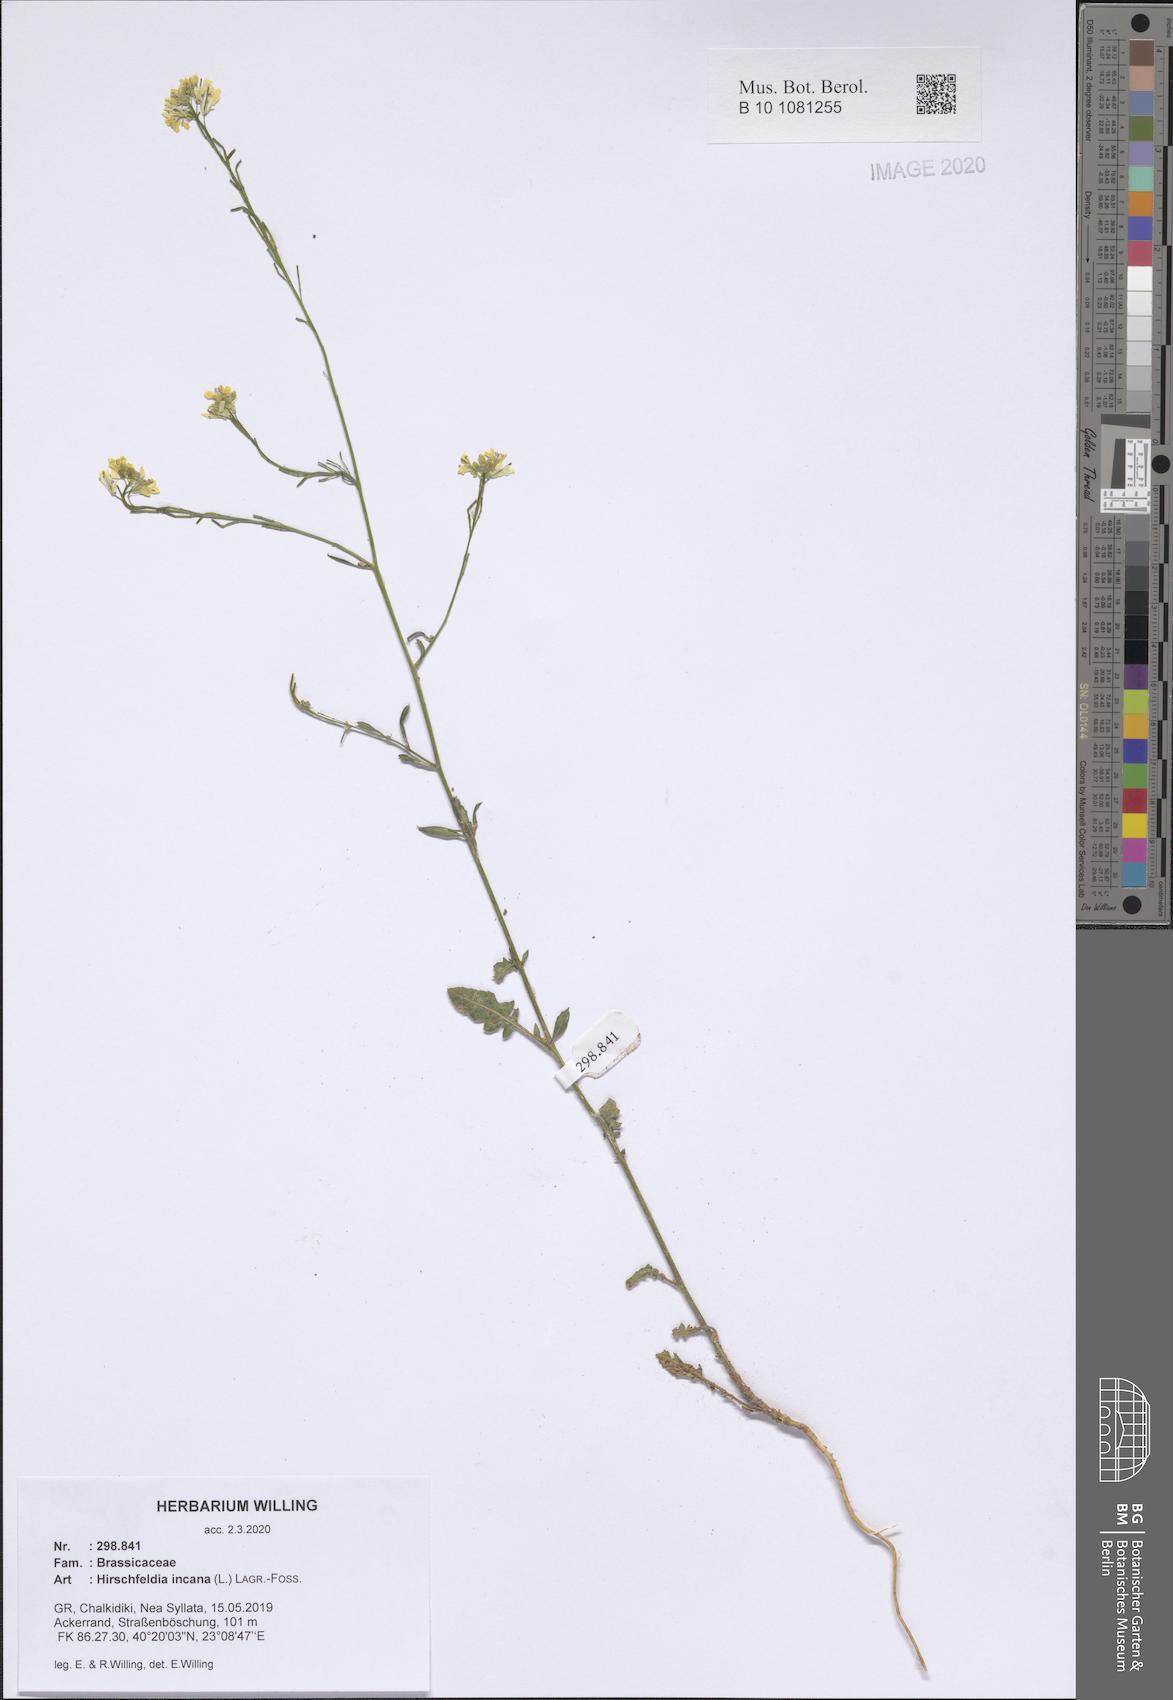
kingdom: Plantae
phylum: Tracheophyta
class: Magnoliopsida
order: Brassicales
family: Brassicaceae
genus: Hirschfeldia
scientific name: Hirschfeldia incana
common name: Hoary mustard
